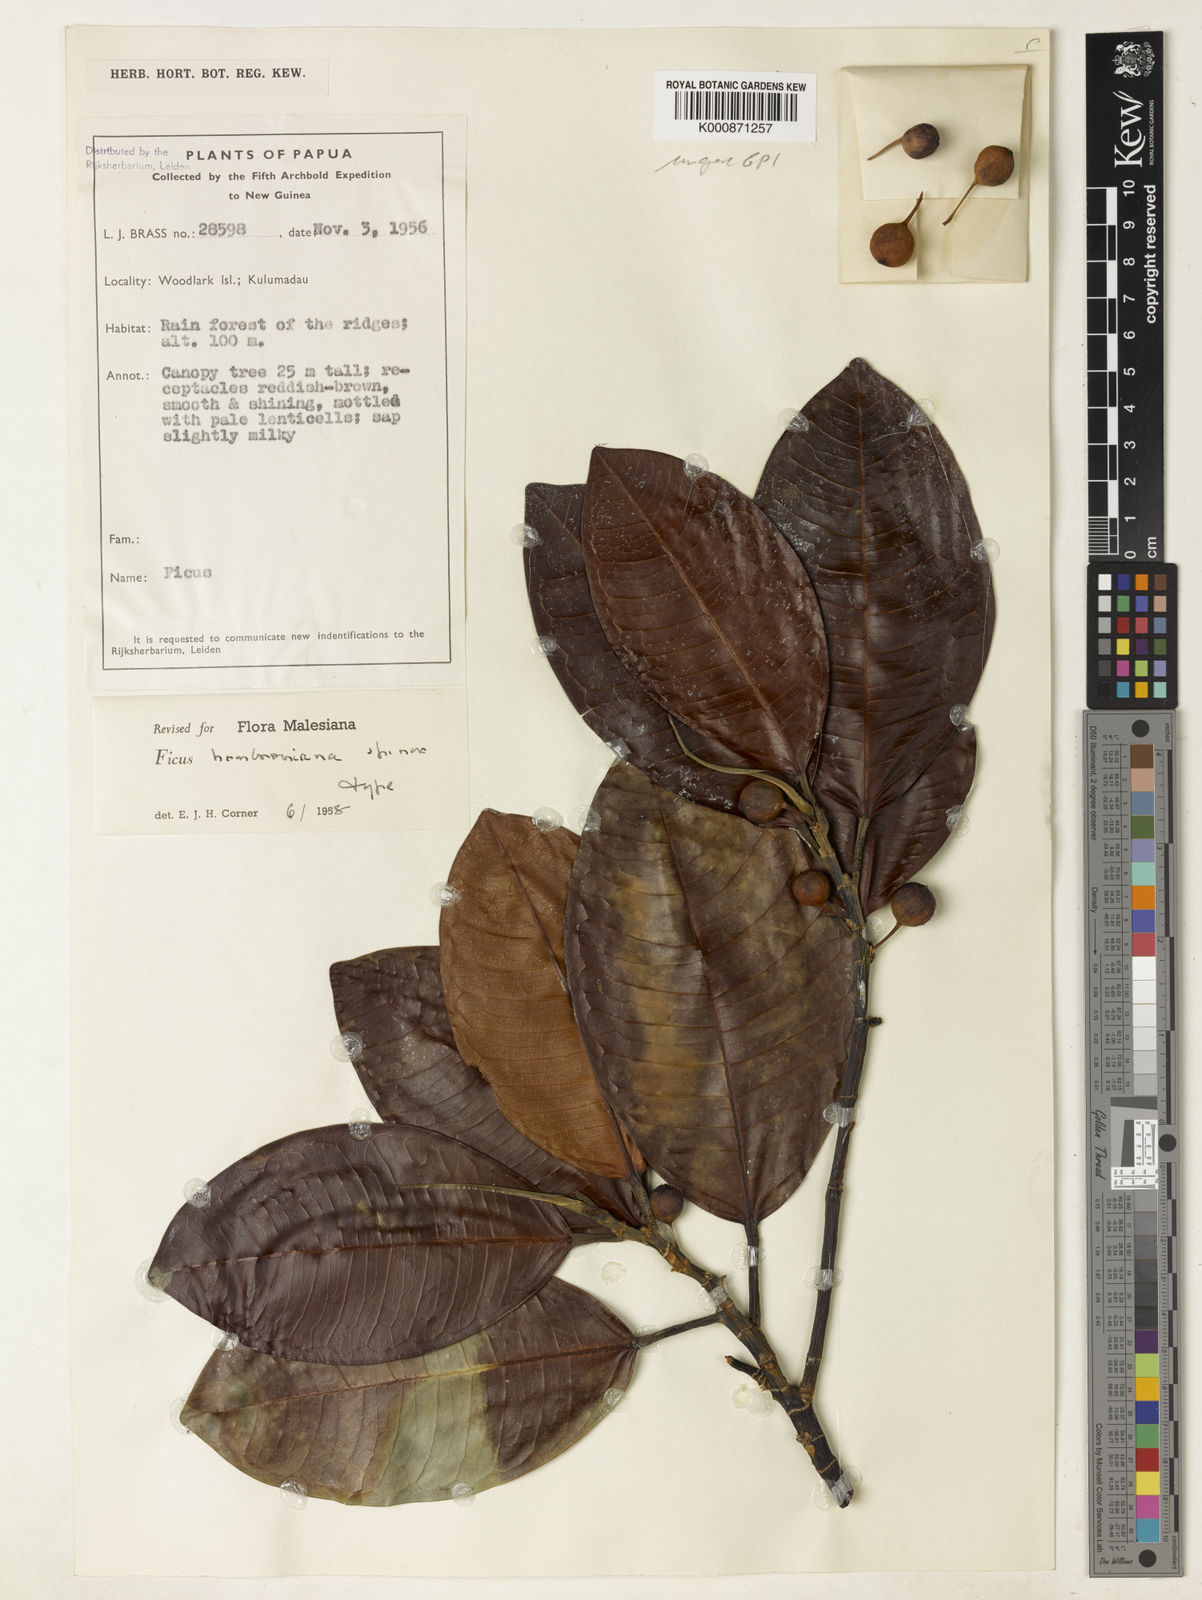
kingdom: Plantae
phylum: Tracheophyta
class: Magnoliopsida
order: Rosales
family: Moraceae
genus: Ficus
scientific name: Ficus hombroniana
